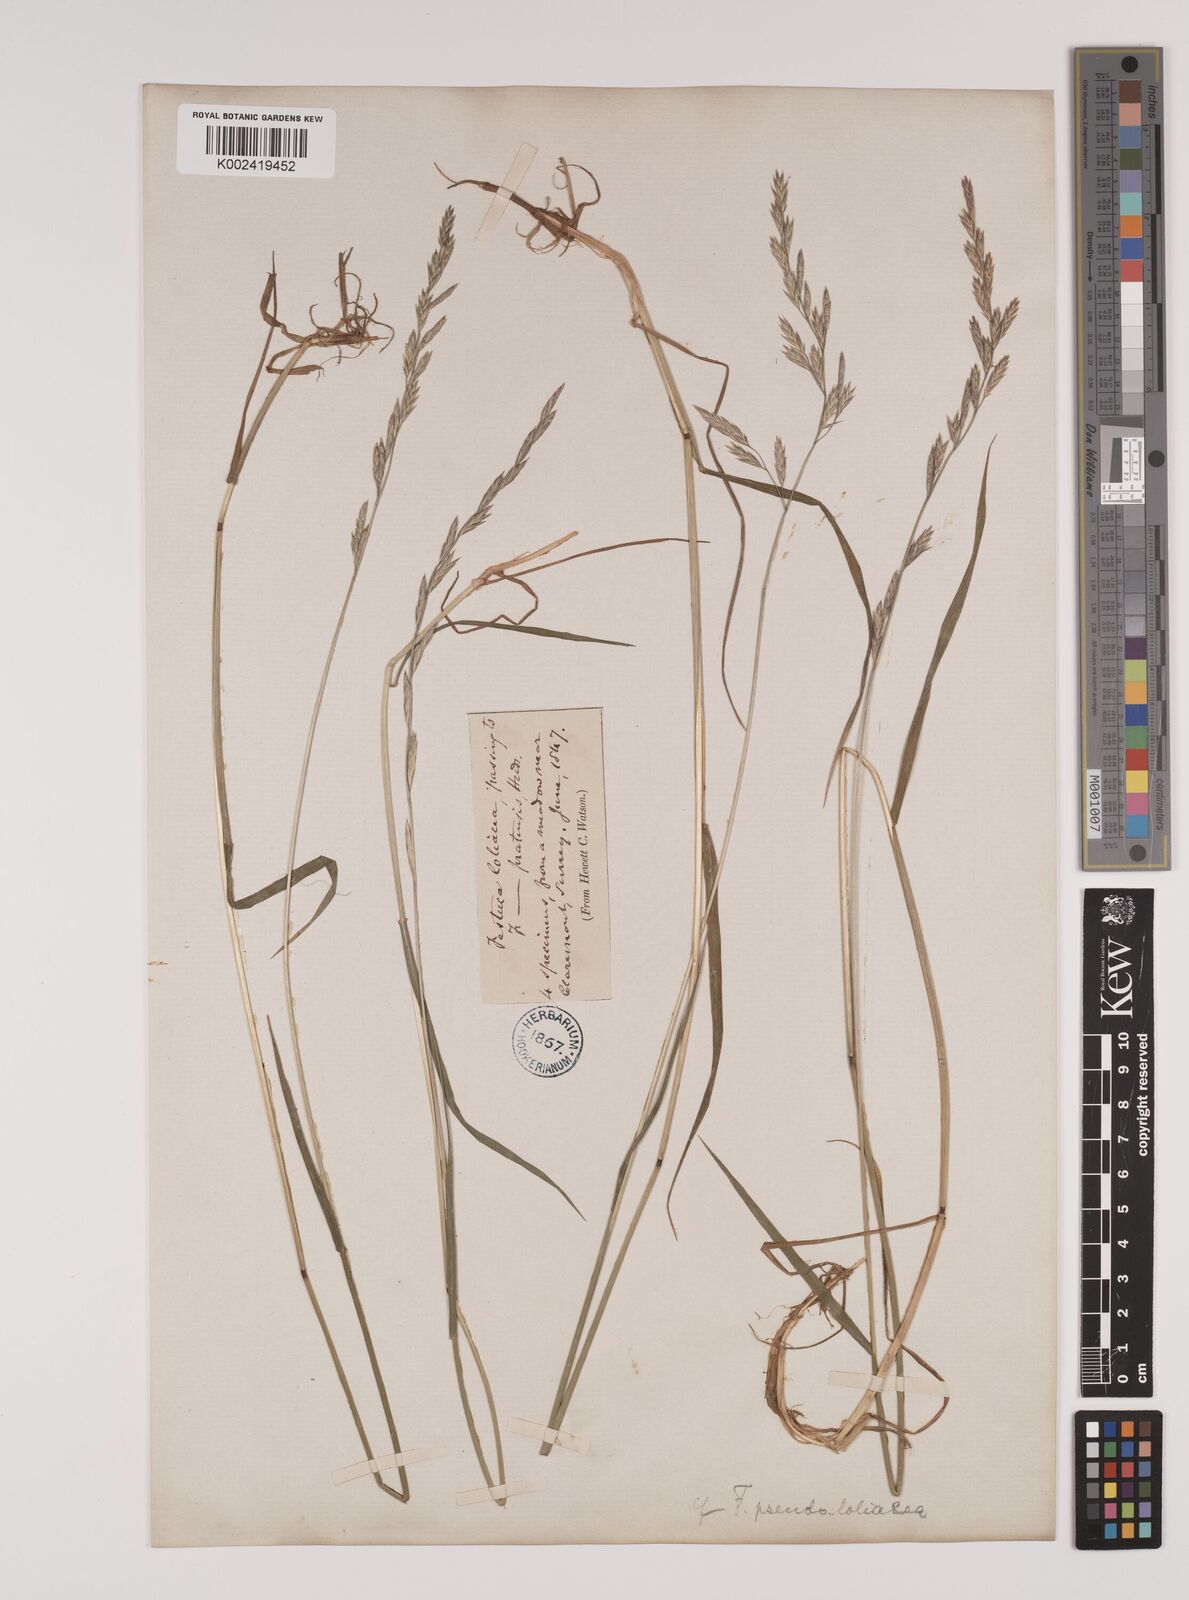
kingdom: Plantae
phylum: Tracheophyta
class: Liliopsida
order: Poales
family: Poaceae
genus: Lolium
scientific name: Lolium pratense
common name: Dover grass
